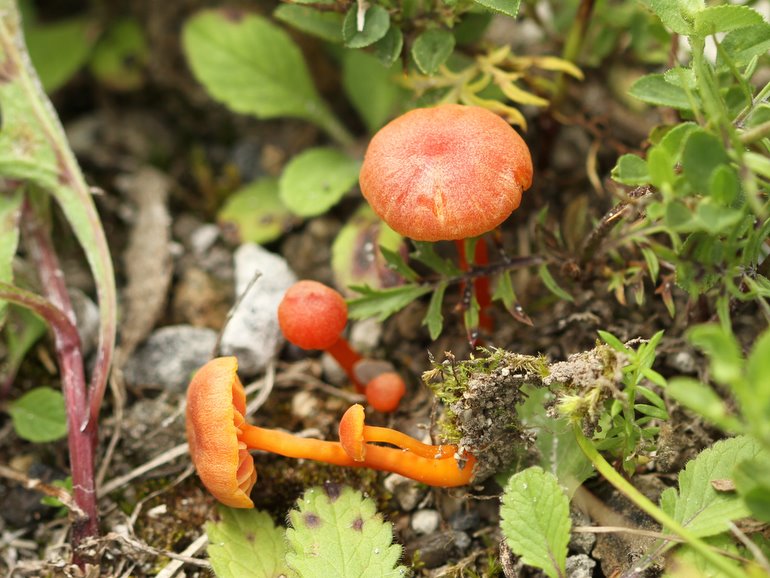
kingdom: Fungi
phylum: Basidiomycota
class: Agaricomycetes
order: Agaricales
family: Hygrophoraceae
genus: Hygrocybe
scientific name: Hygrocybe calciphila
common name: kalk-vokshat
